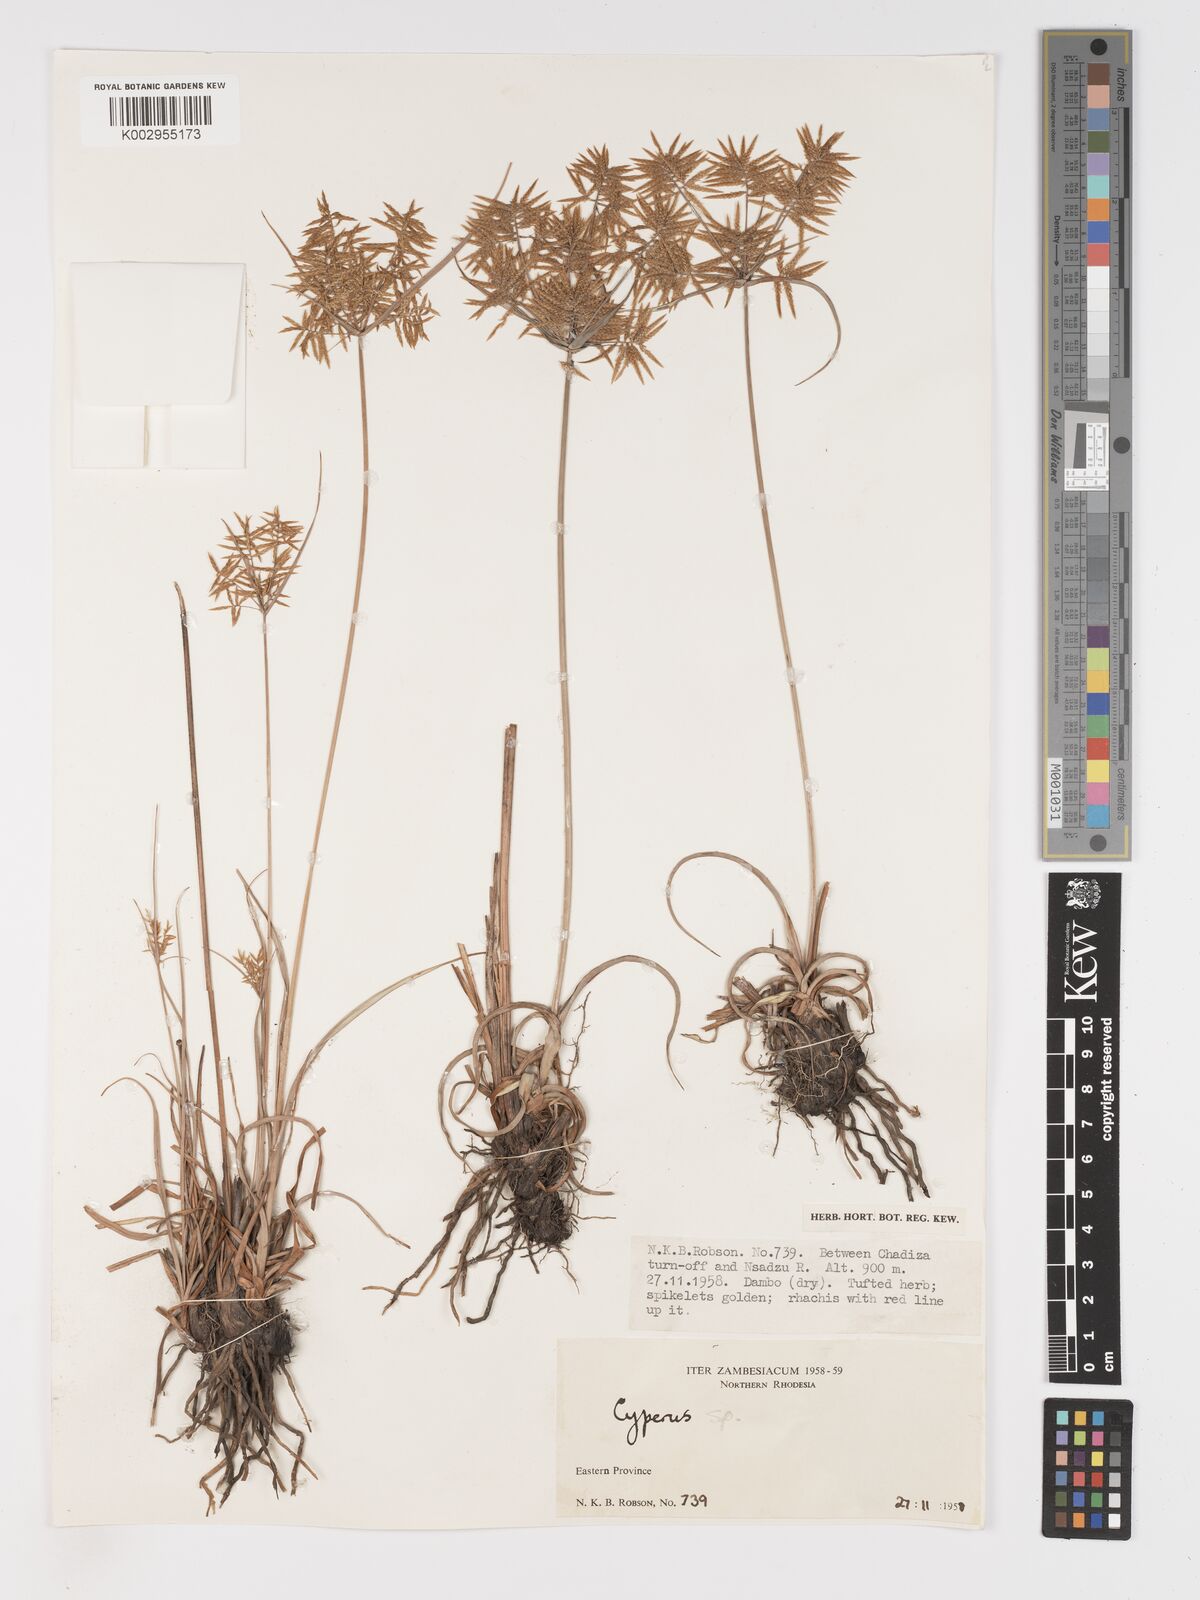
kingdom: Plantae
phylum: Tracheophyta
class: Liliopsida
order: Poales
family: Cyperaceae
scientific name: Cyperaceae
